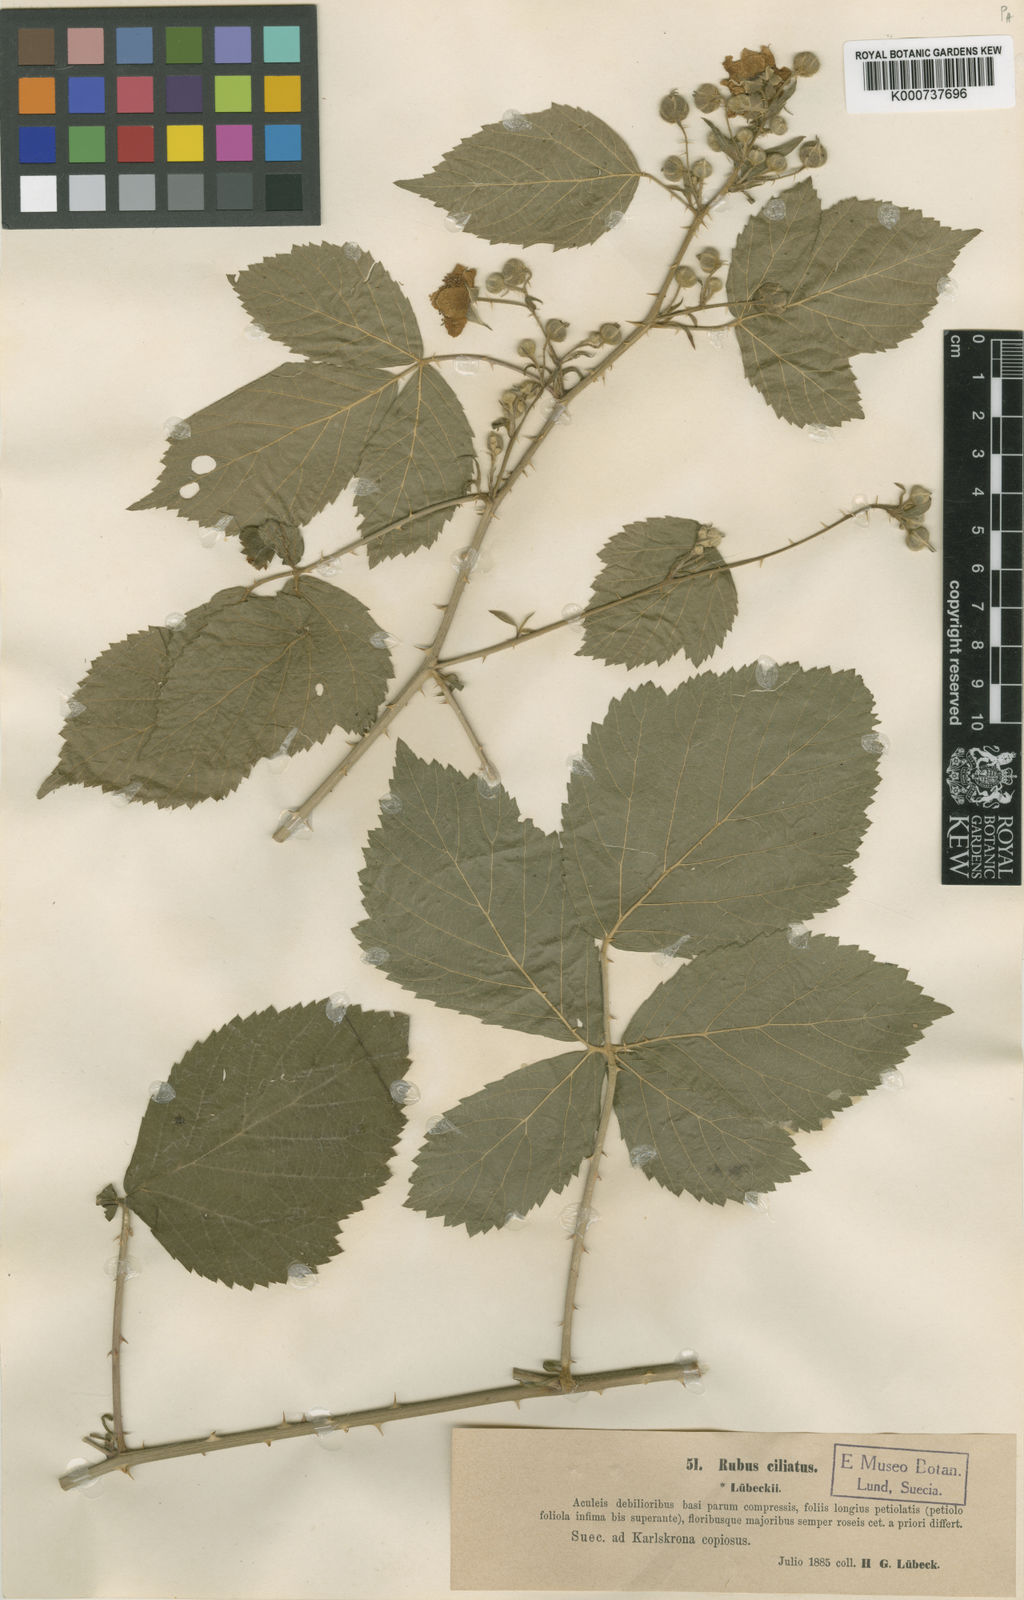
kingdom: Plantae
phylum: Tracheophyta
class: Magnoliopsida
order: Rosales
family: Rosaceae
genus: Rubus
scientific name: Rubus
